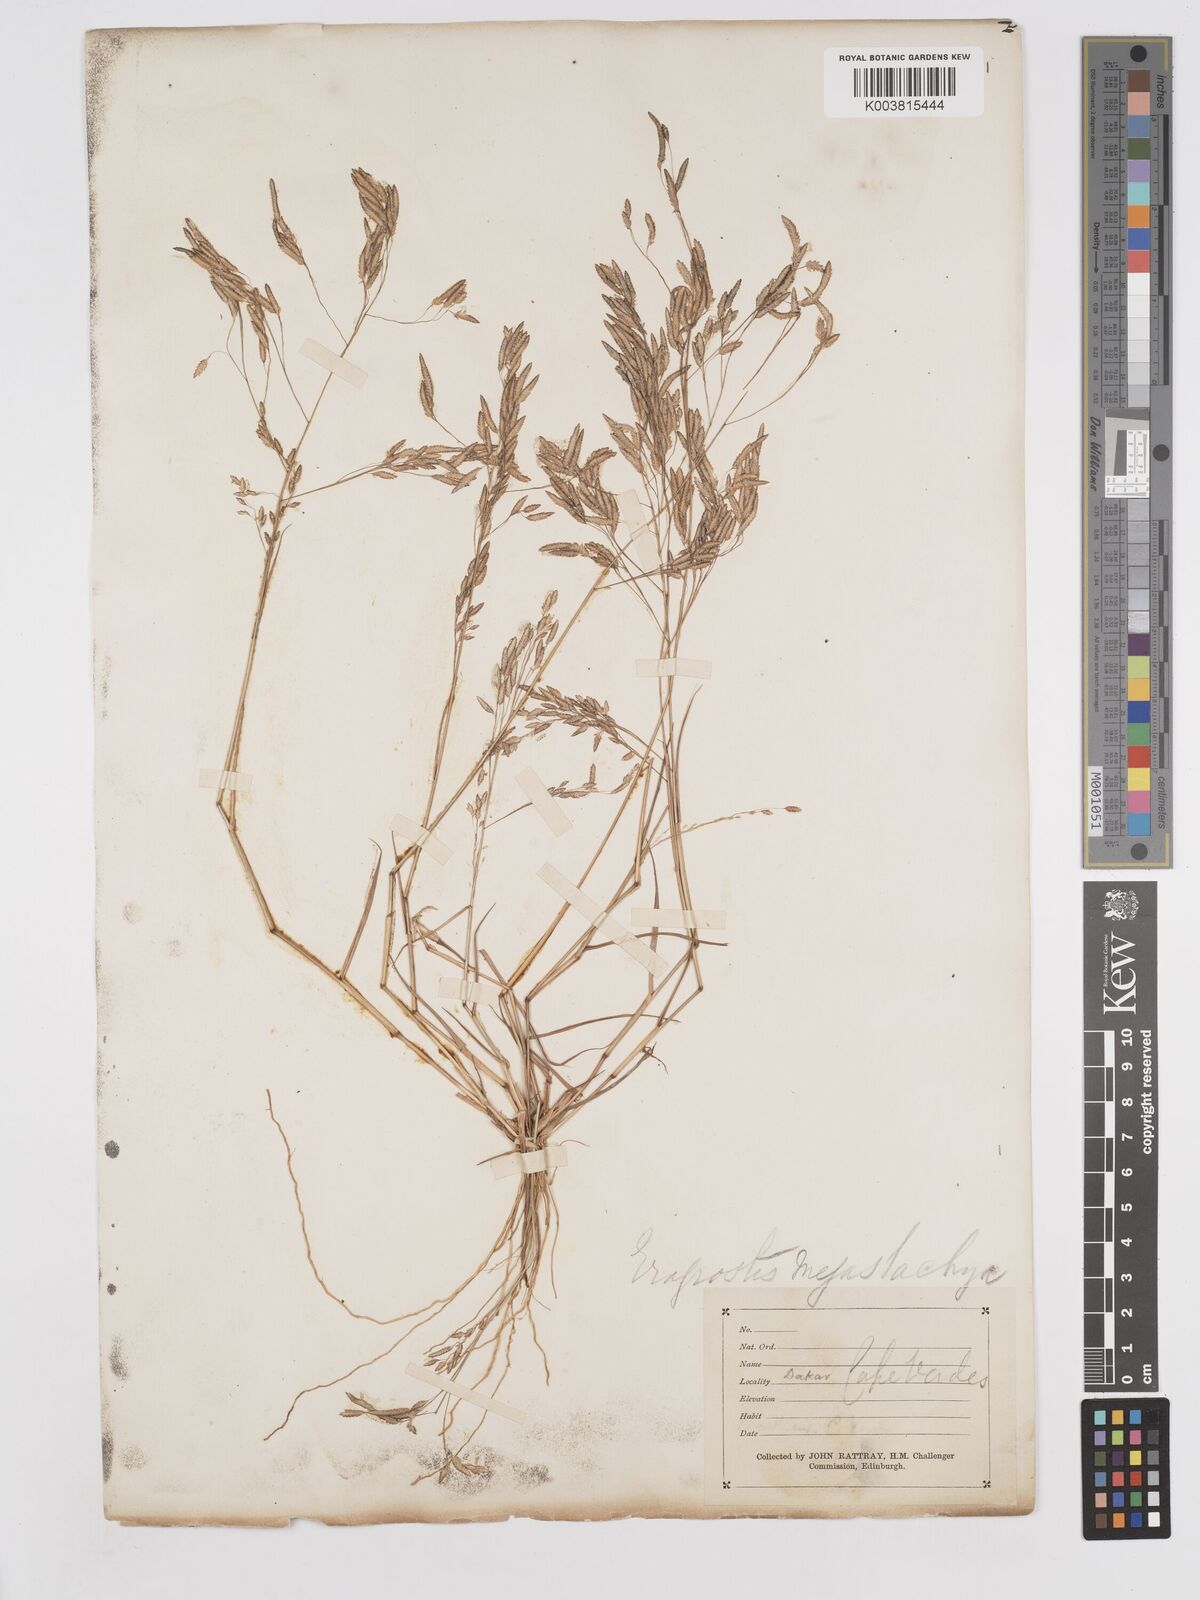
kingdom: Plantae
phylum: Tracheophyta
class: Liliopsida
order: Poales
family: Poaceae
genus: Eragrostis
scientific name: Eragrostis tremula
